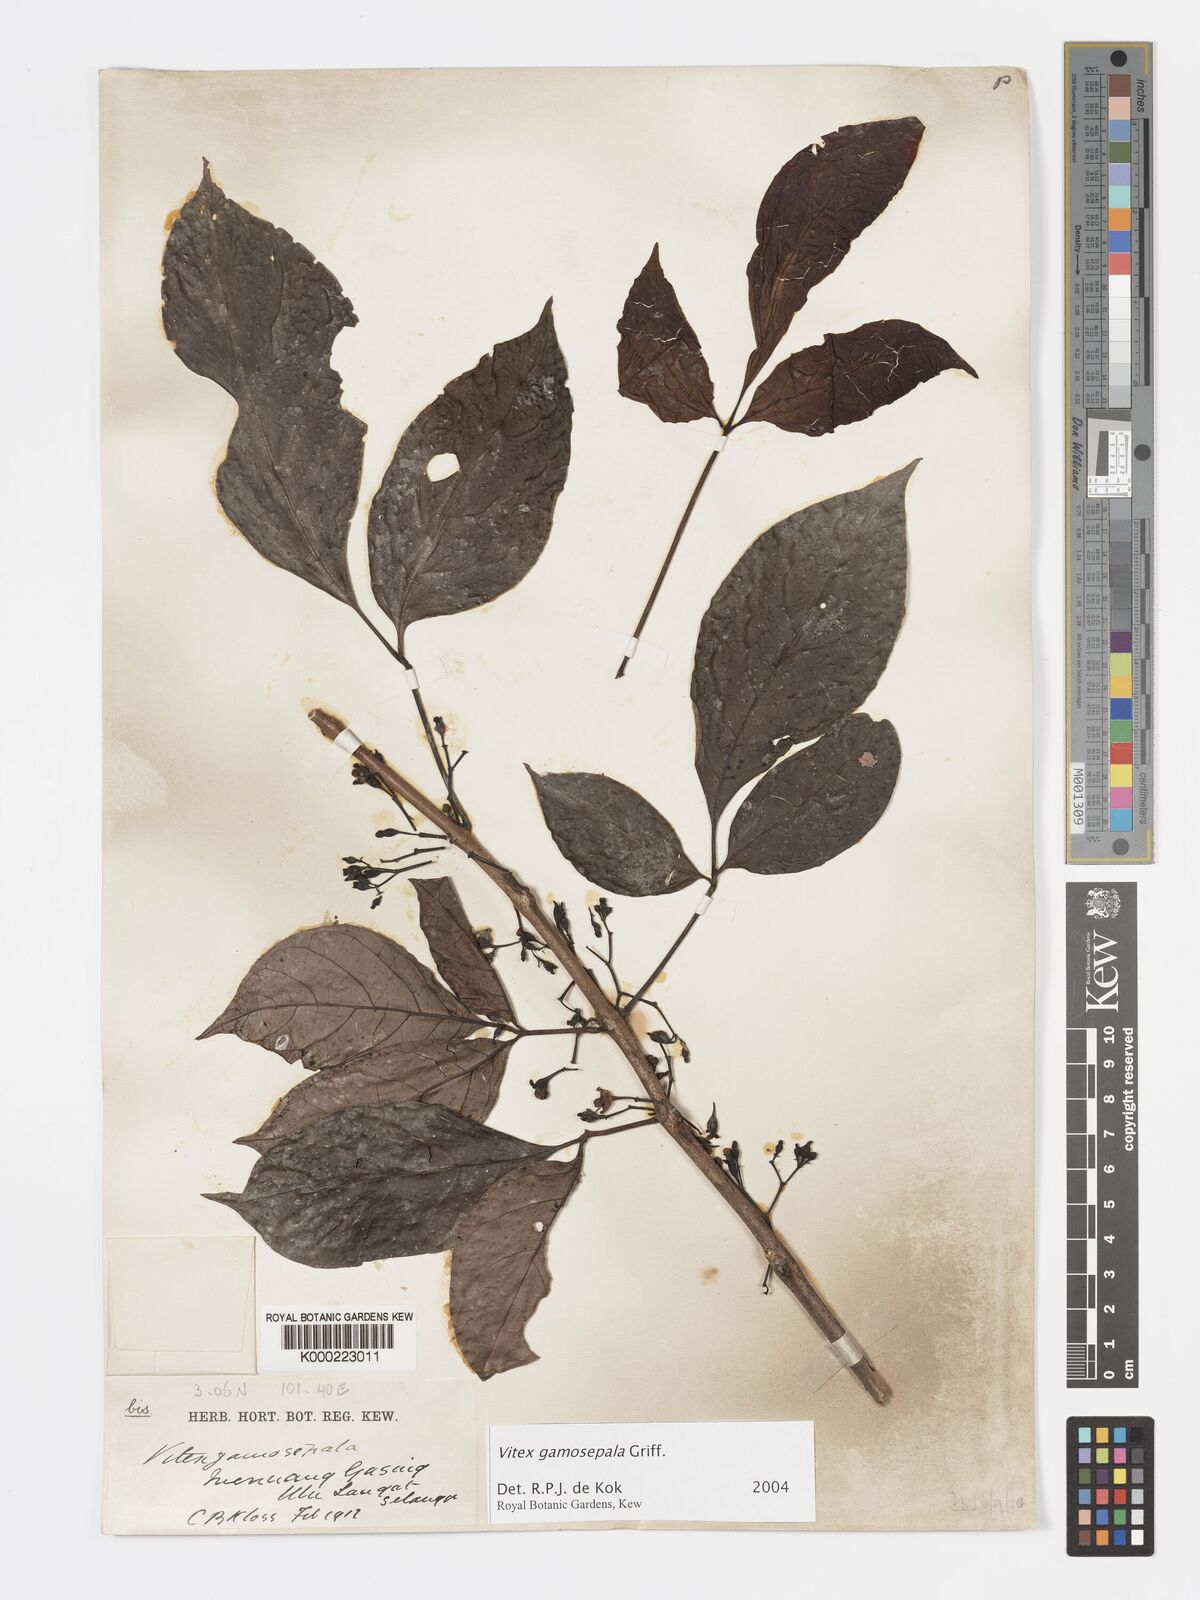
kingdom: Plantae
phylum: Tracheophyta
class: Magnoliopsida
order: Lamiales
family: Lamiaceae
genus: Vitex
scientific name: Vitex gamosepala
